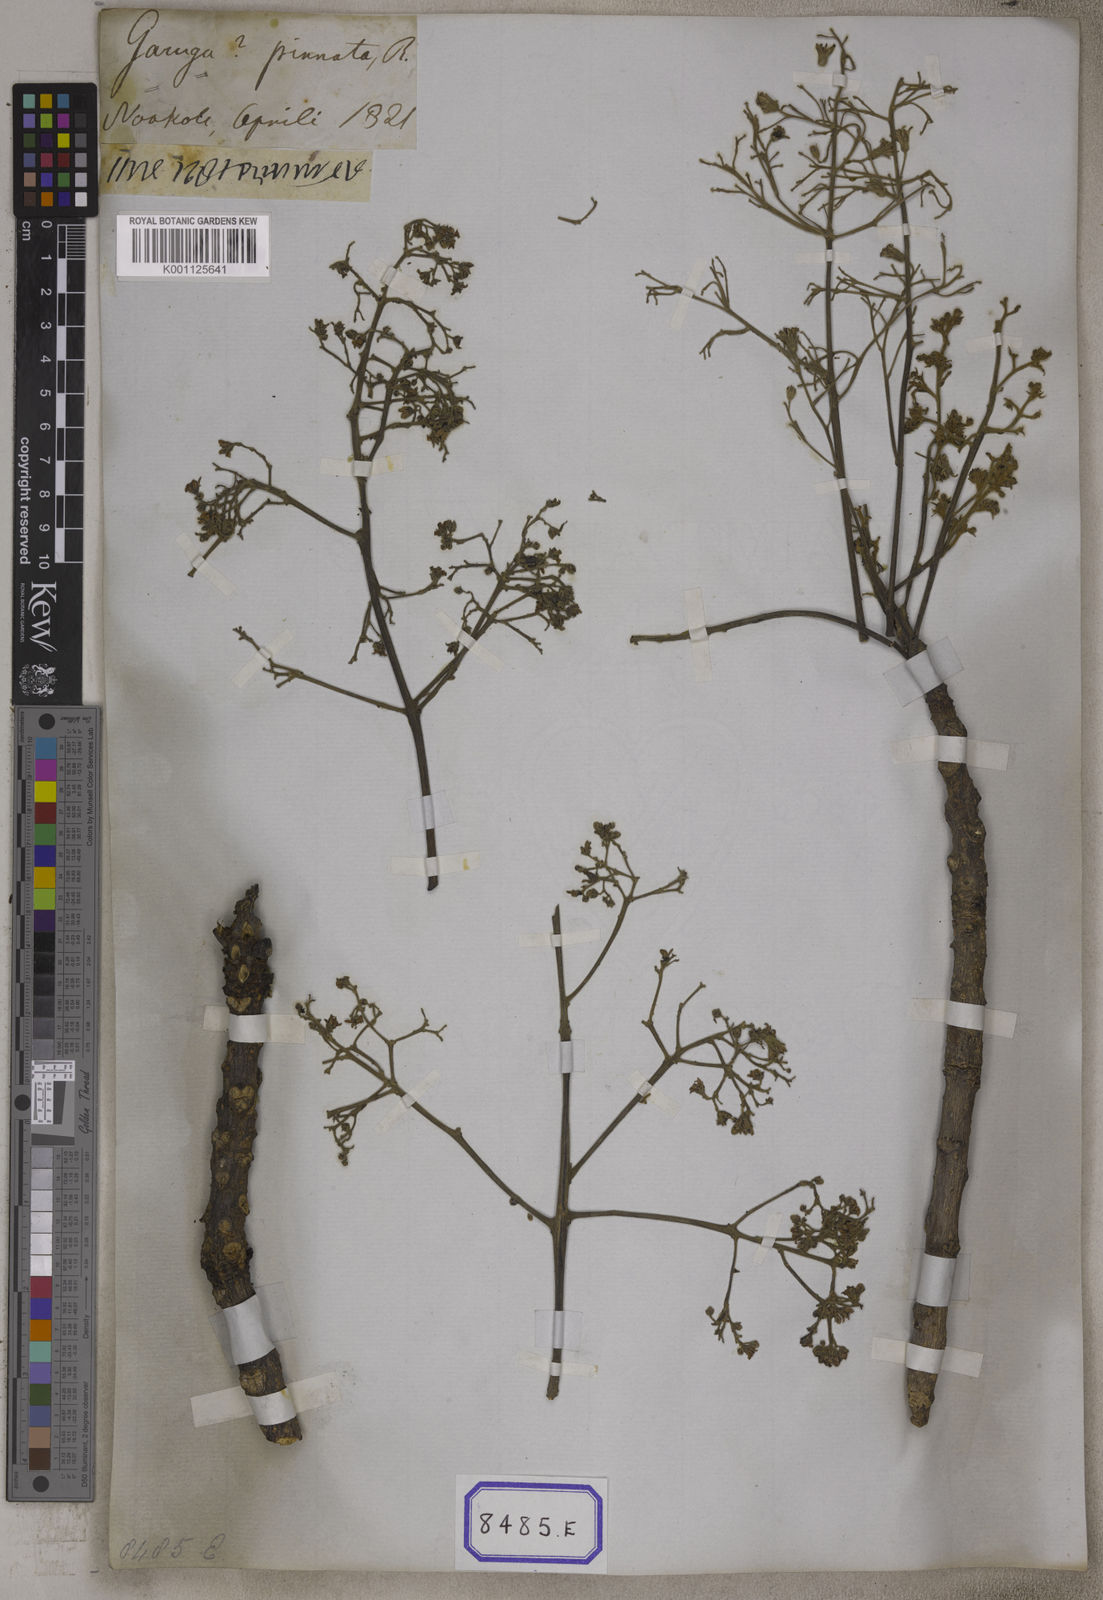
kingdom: Plantae
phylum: Tracheophyta
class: Magnoliopsida
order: Sapindales
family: Burseraceae
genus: Garuga
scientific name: Garuga pinnata
